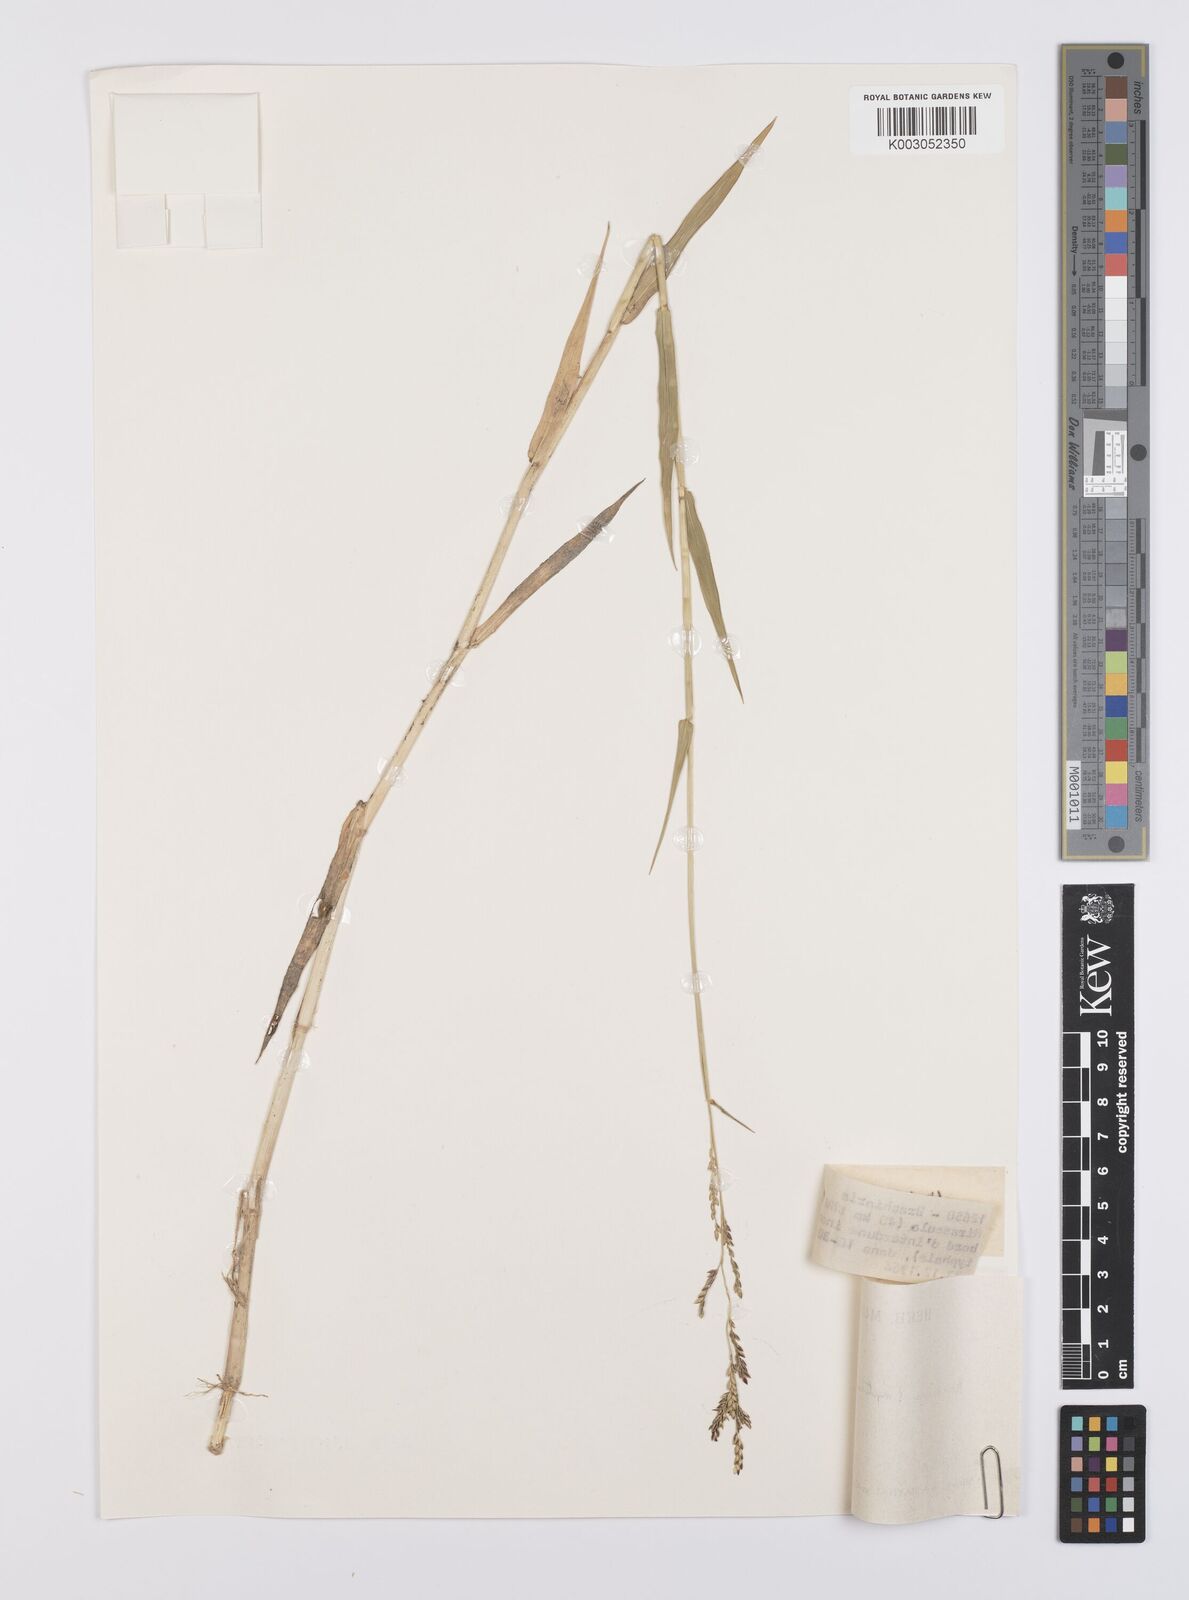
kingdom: Plantae
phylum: Tracheophyta
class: Liliopsida
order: Poales
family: Poaceae
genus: Urochloa
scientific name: Urochloa arrecta
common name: African signalgrass
